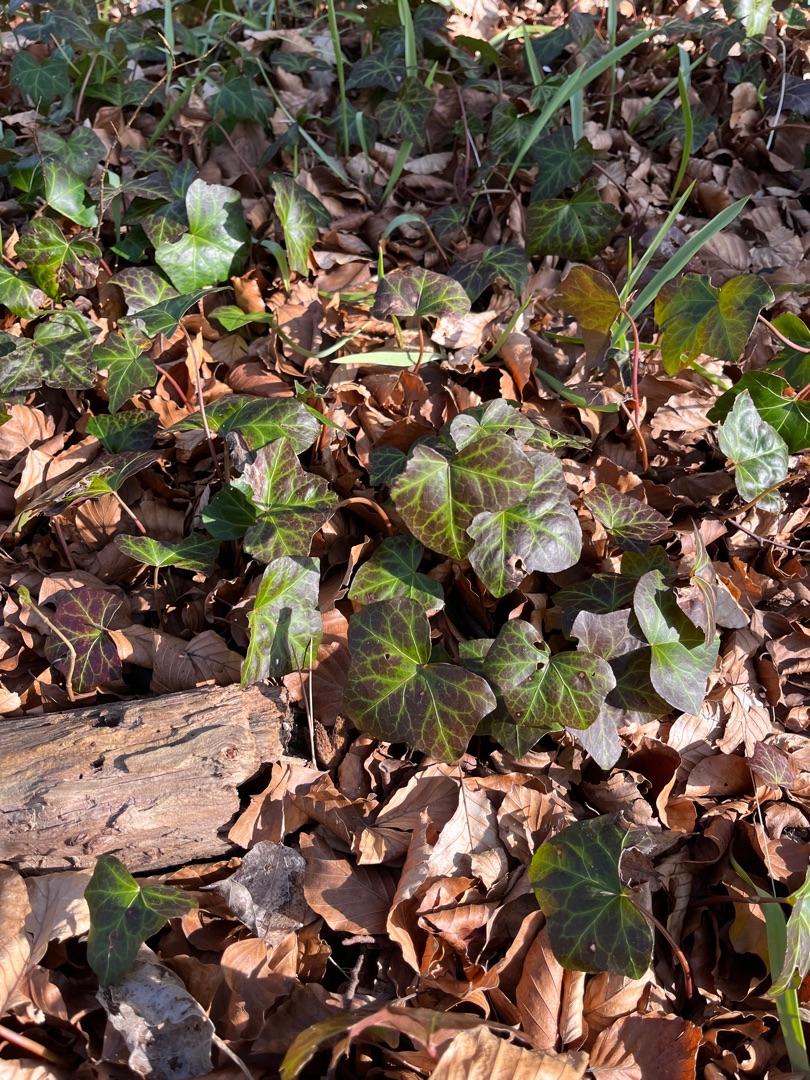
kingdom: Plantae
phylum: Tracheophyta
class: Magnoliopsida
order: Apiales
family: Araliaceae
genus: Hedera
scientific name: Hedera helix
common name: Vedbend
